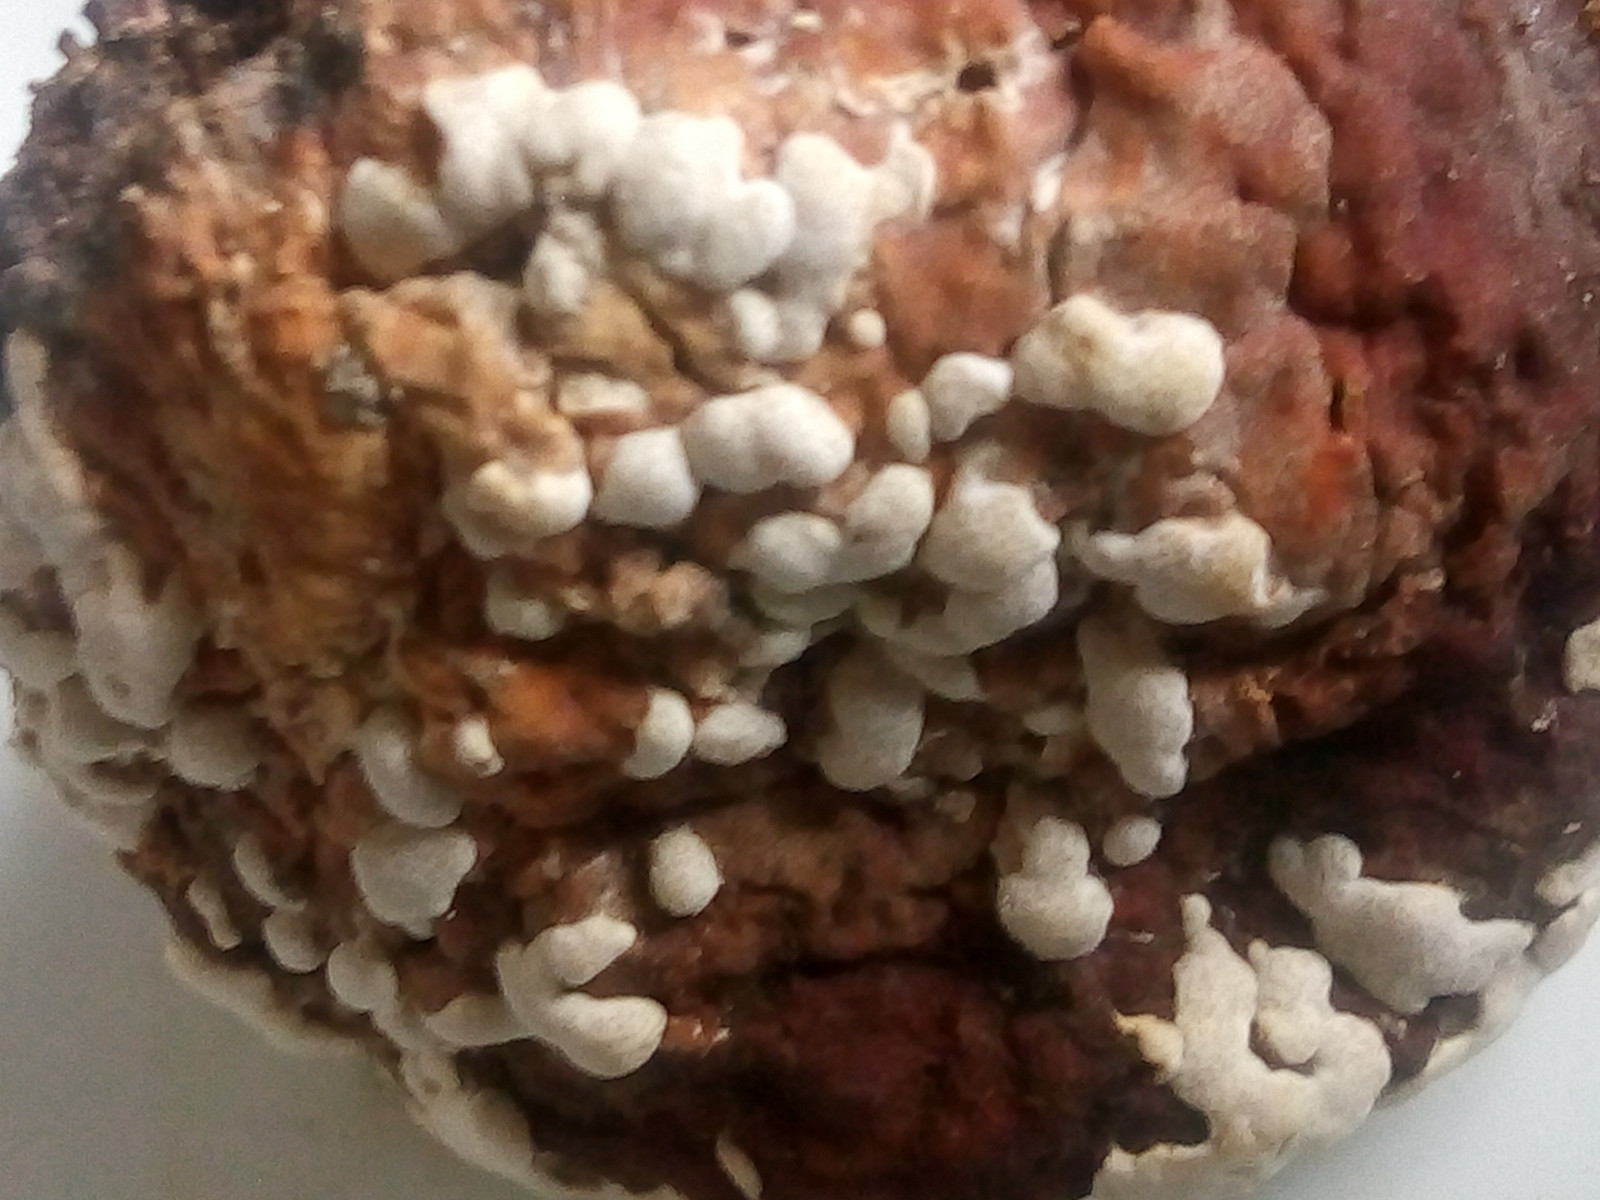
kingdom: Fungi
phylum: Ascomycota
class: Sordariomycetes
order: Hypocreales
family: Hypocreaceae
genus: Trichoderma
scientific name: Trichoderma pulvinatum
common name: snyltende kødkerne
